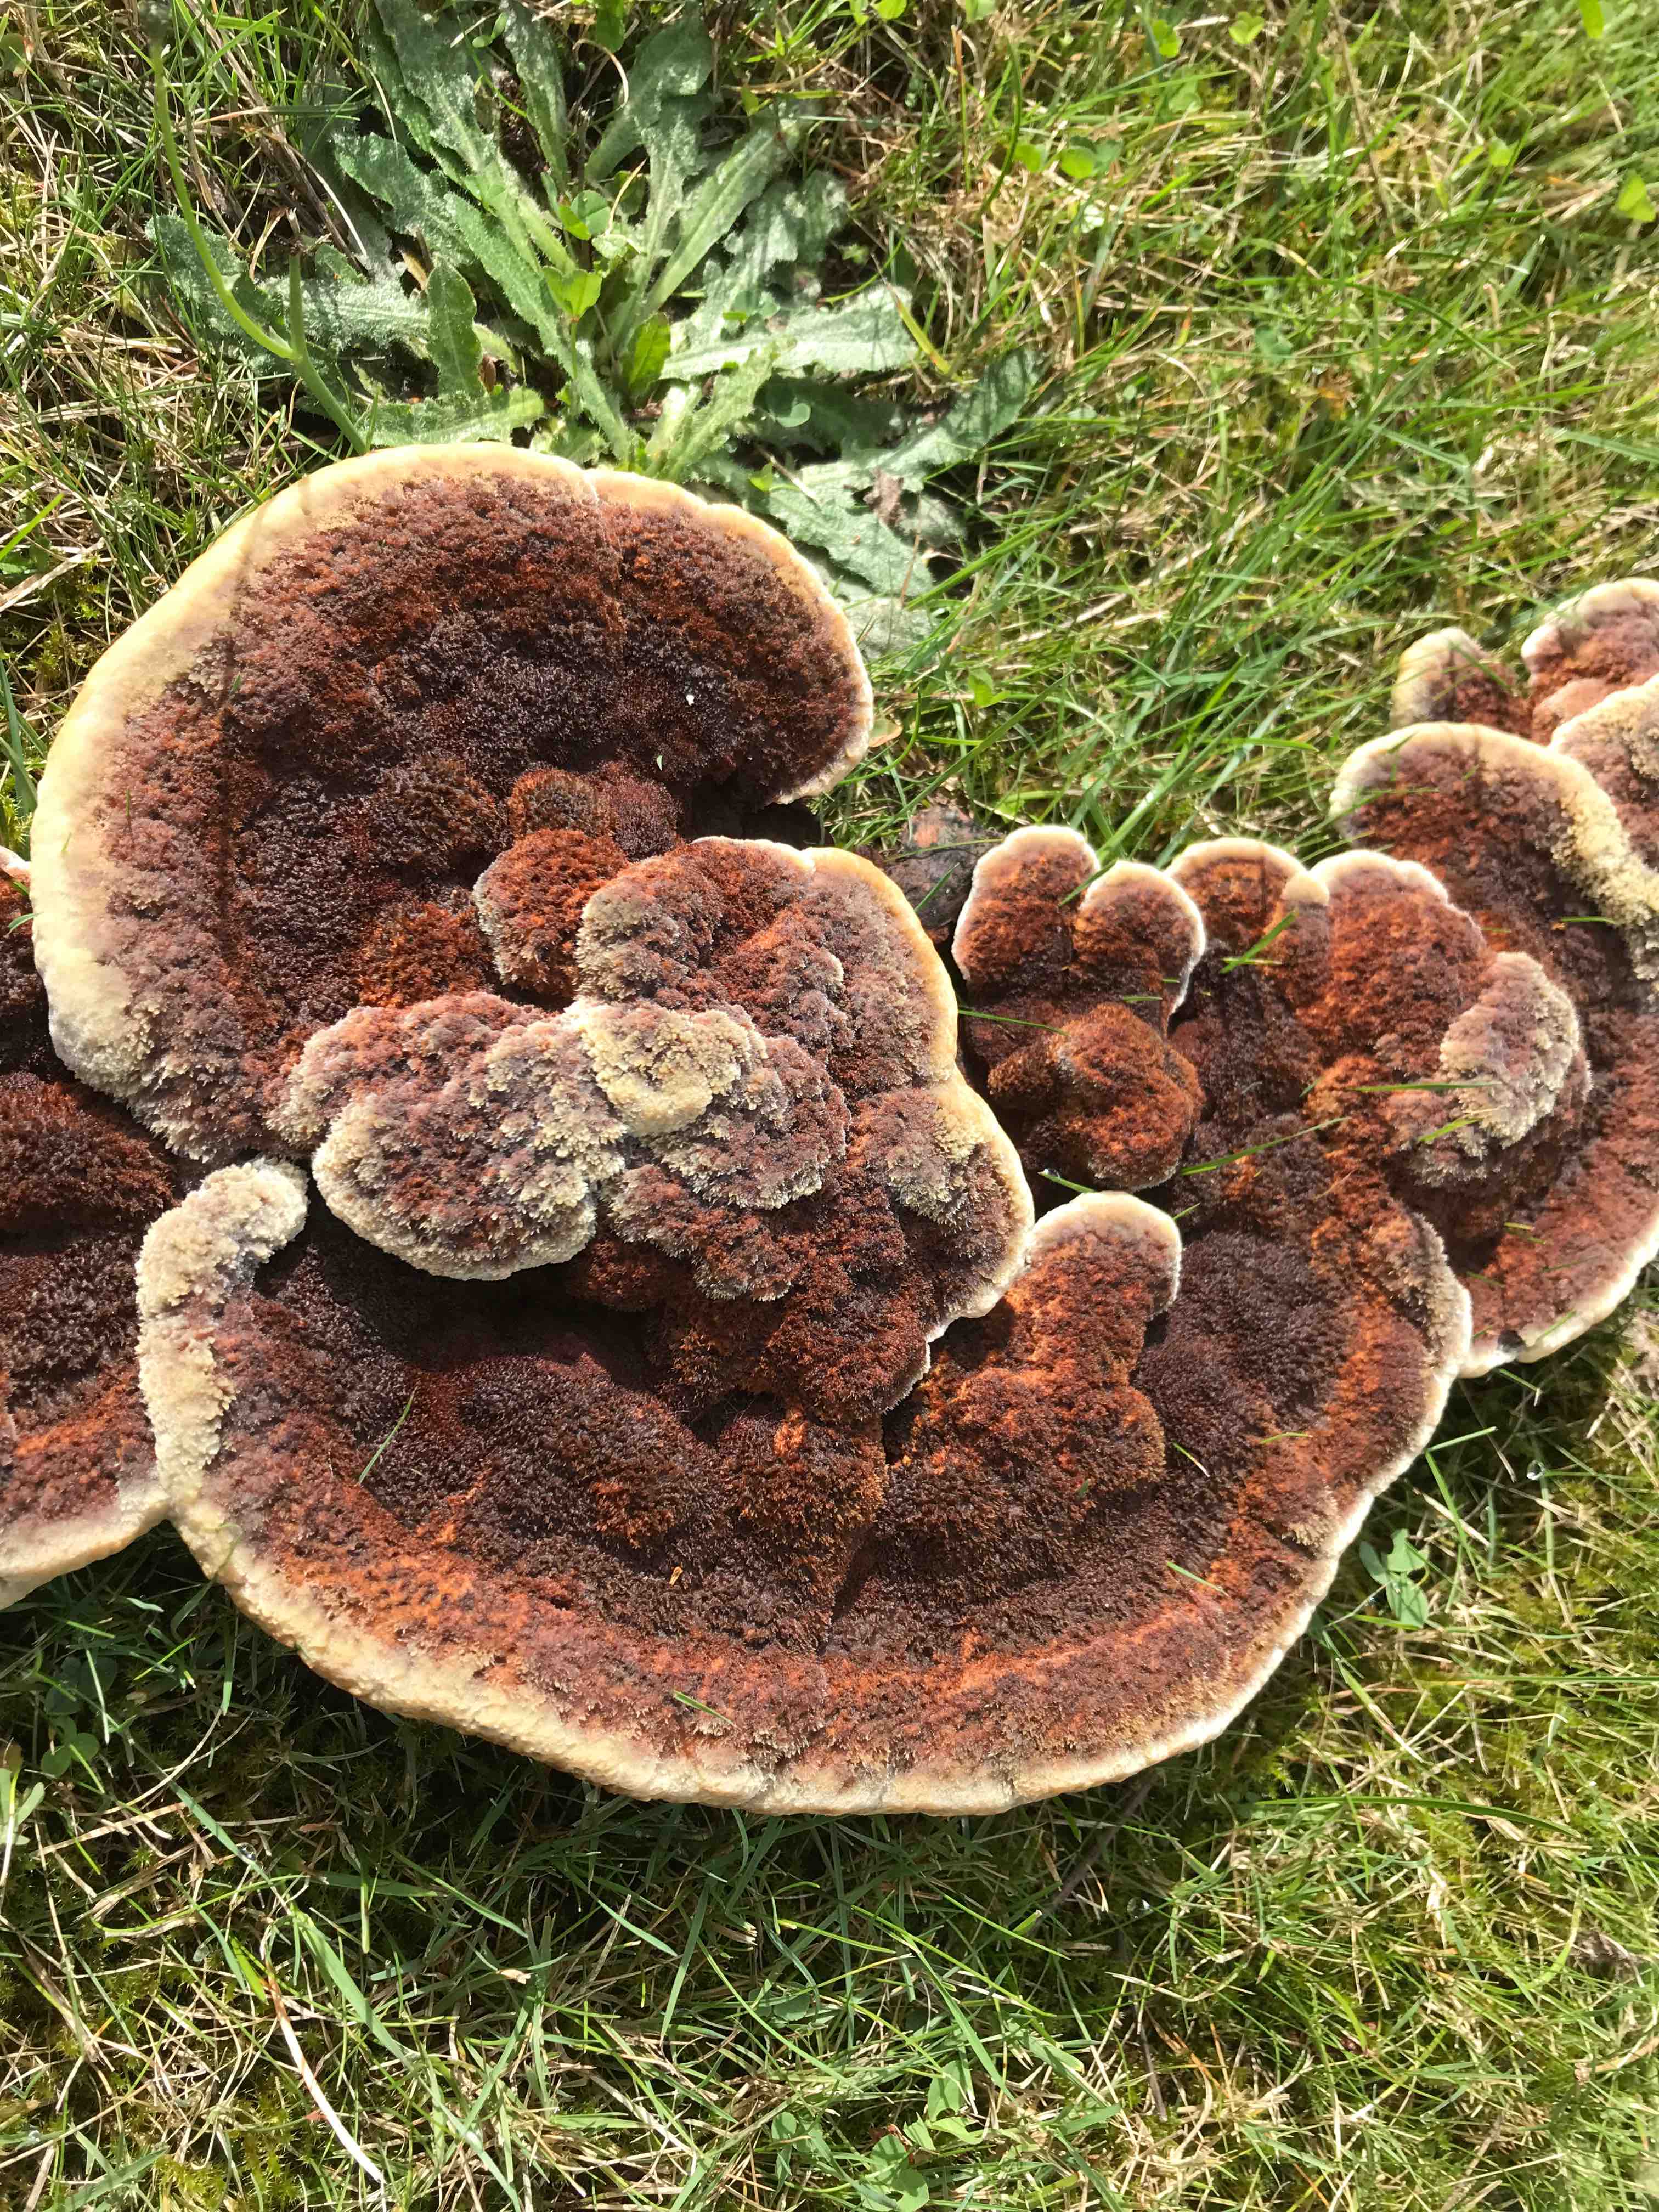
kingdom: Fungi
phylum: Basidiomycota
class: Agaricomycetes
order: Polyporales
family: Laetiporaceae
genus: Phaeolus
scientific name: Phaeolus schweinitzii
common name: brunporesvamp
